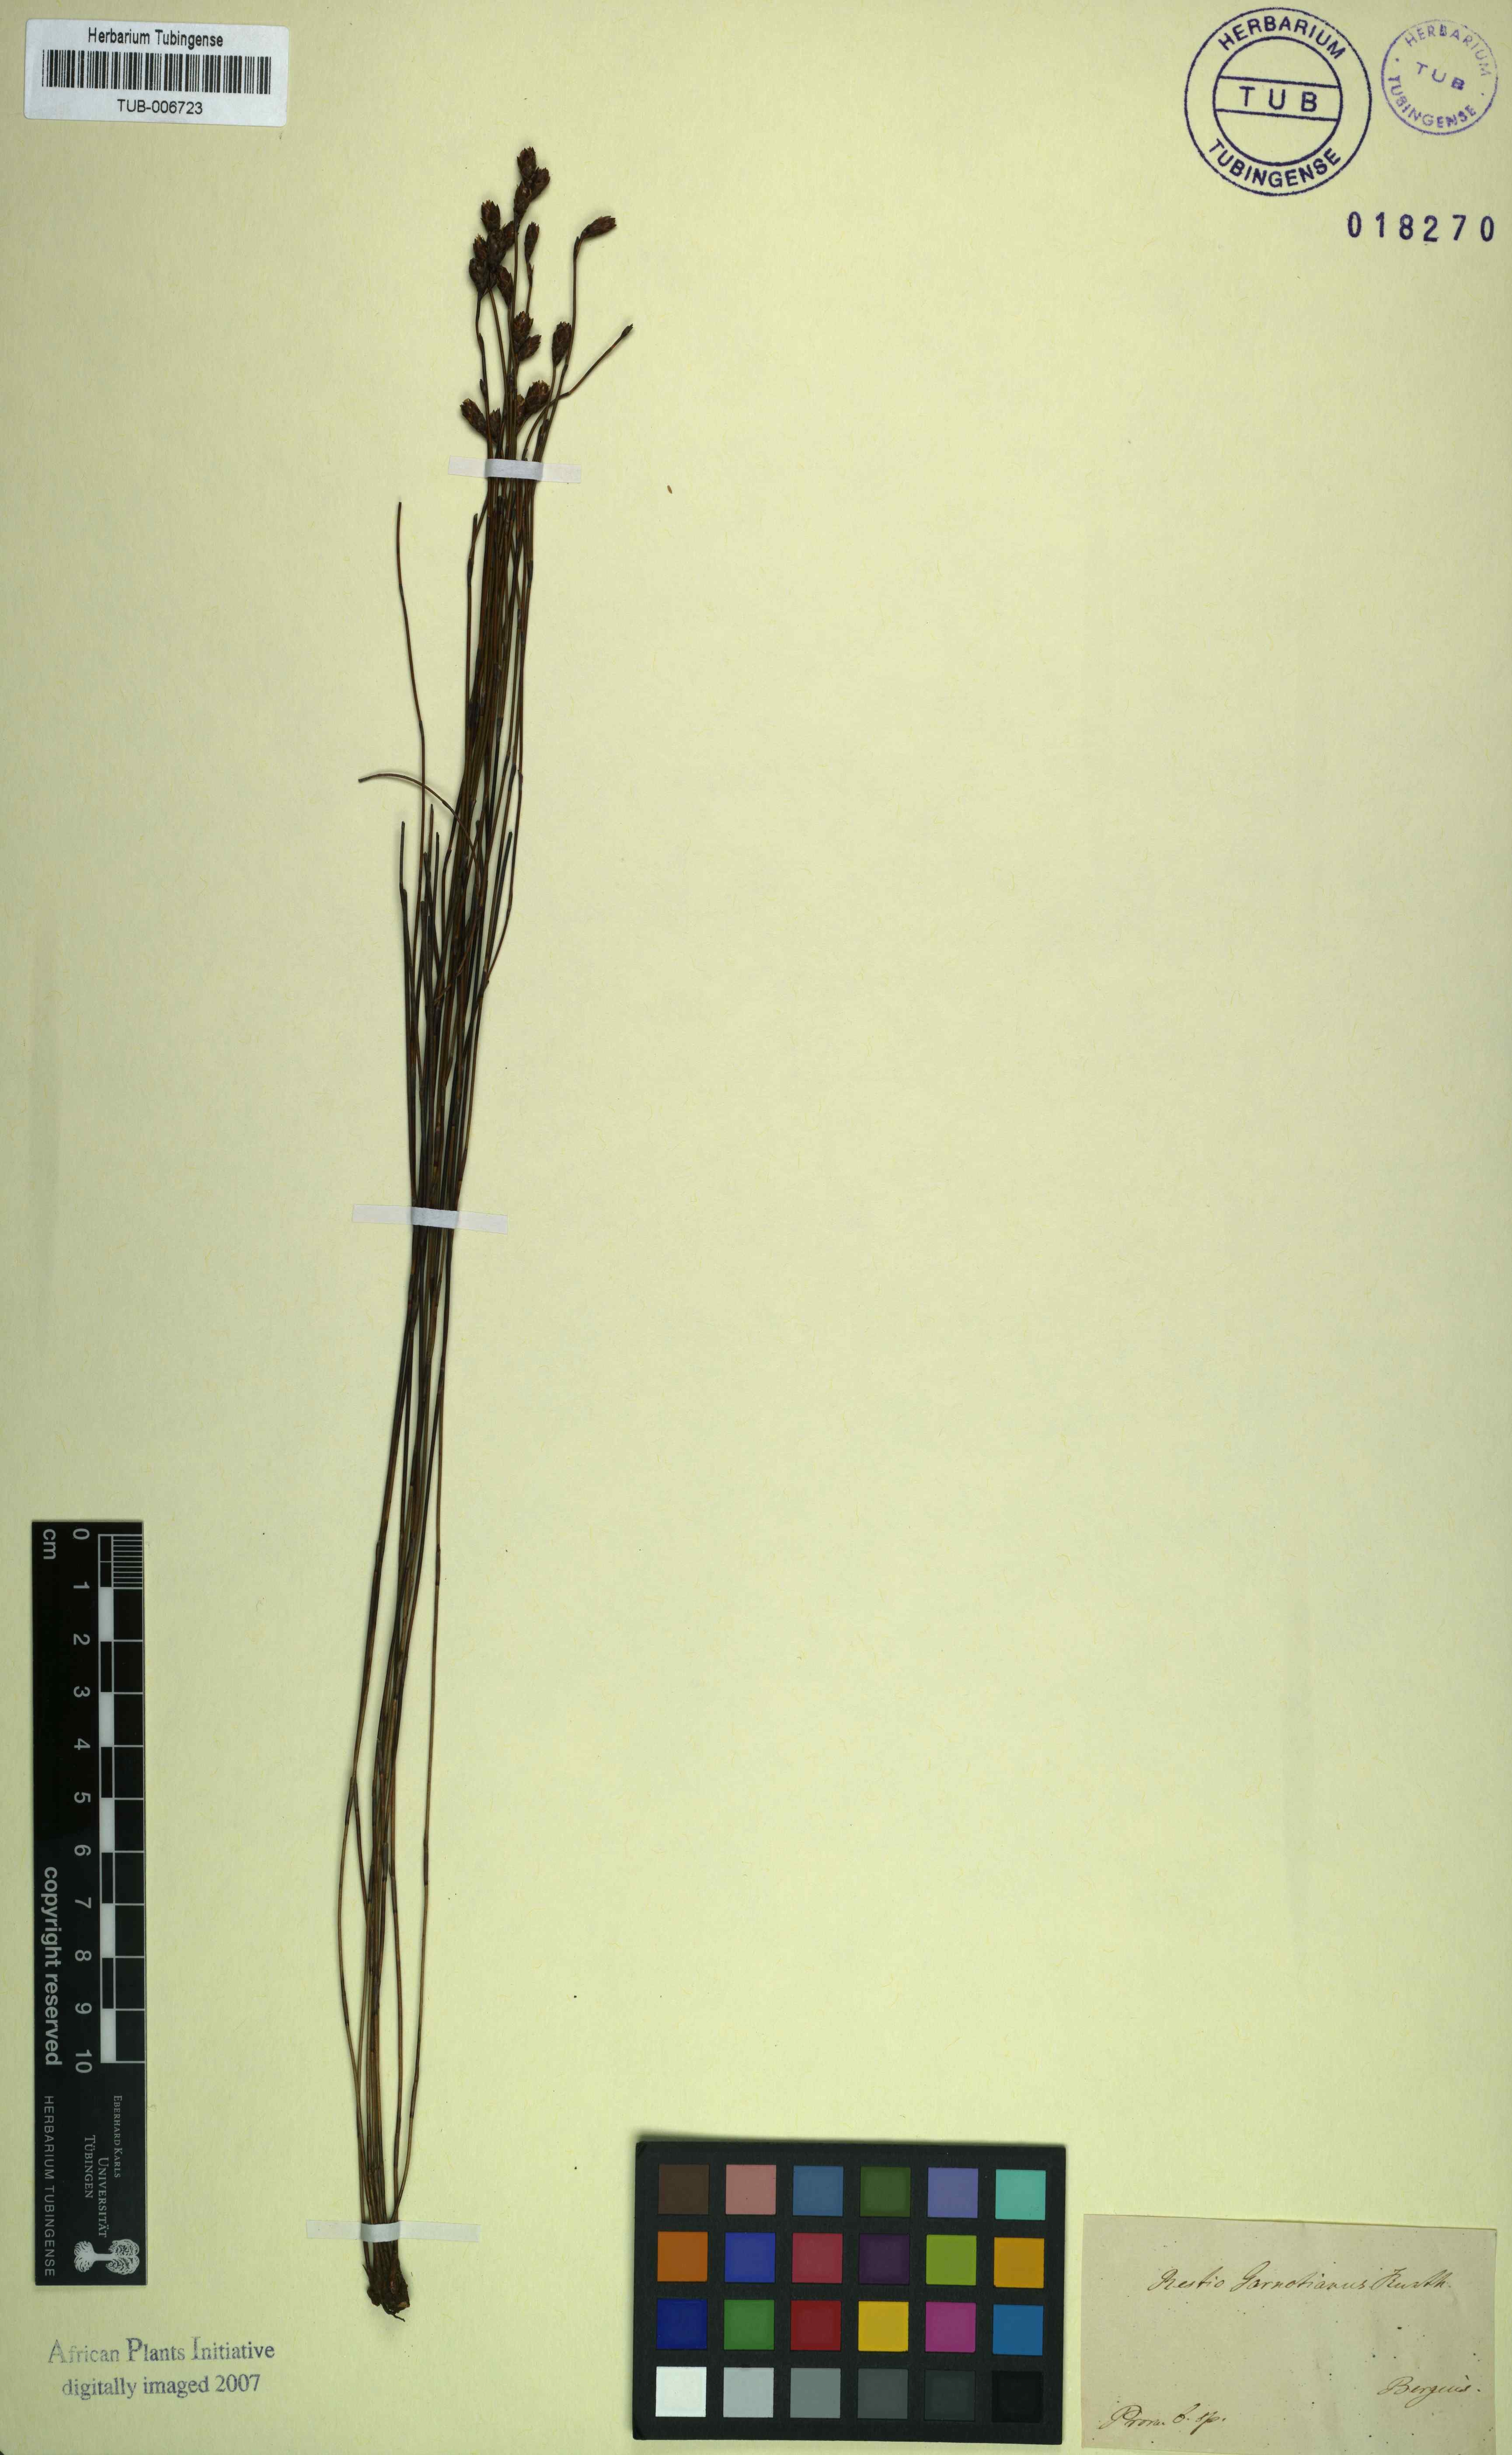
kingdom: Plantae
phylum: Tracheophyta
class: Liliopsida
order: Poales
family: Restionaceae
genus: Restio
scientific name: Restio filiformis
